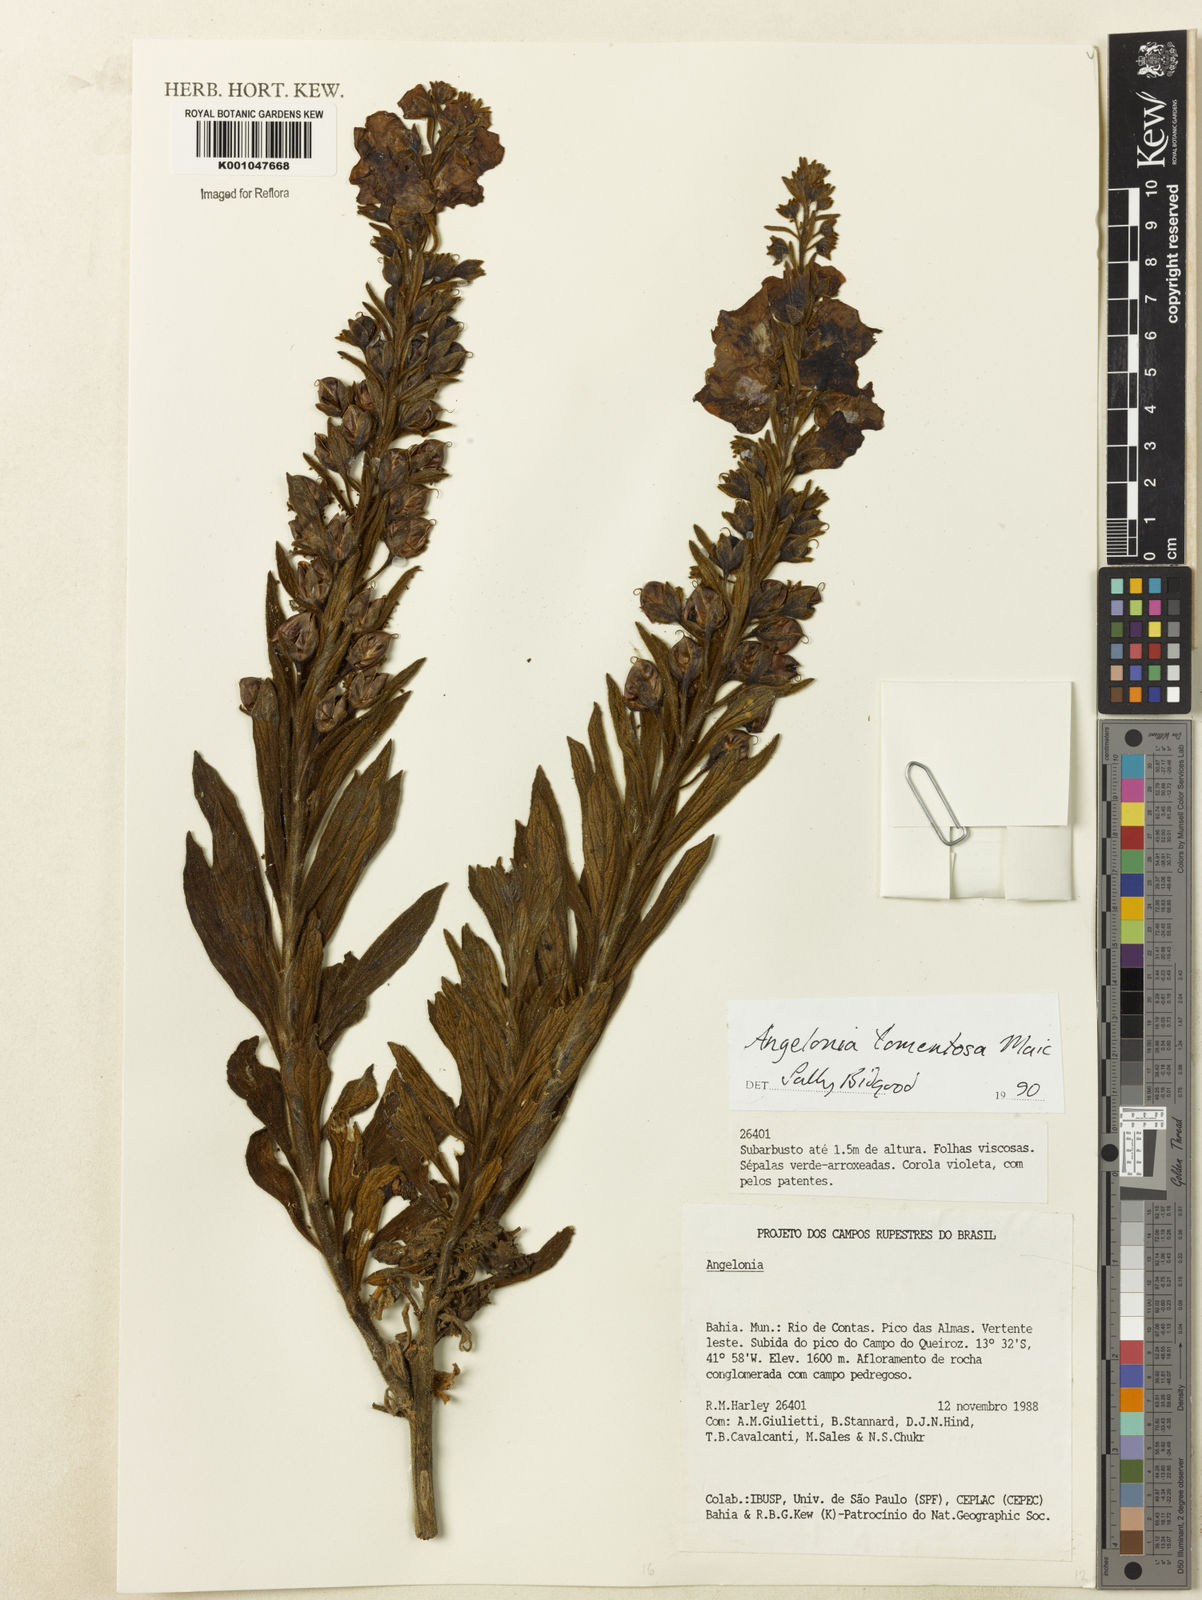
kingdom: Plantae
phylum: Tracheophyta
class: Magnoliopsida
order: Lamiales
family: Plantaginaceae
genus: Angelonia
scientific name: Angelonia tomentosa
